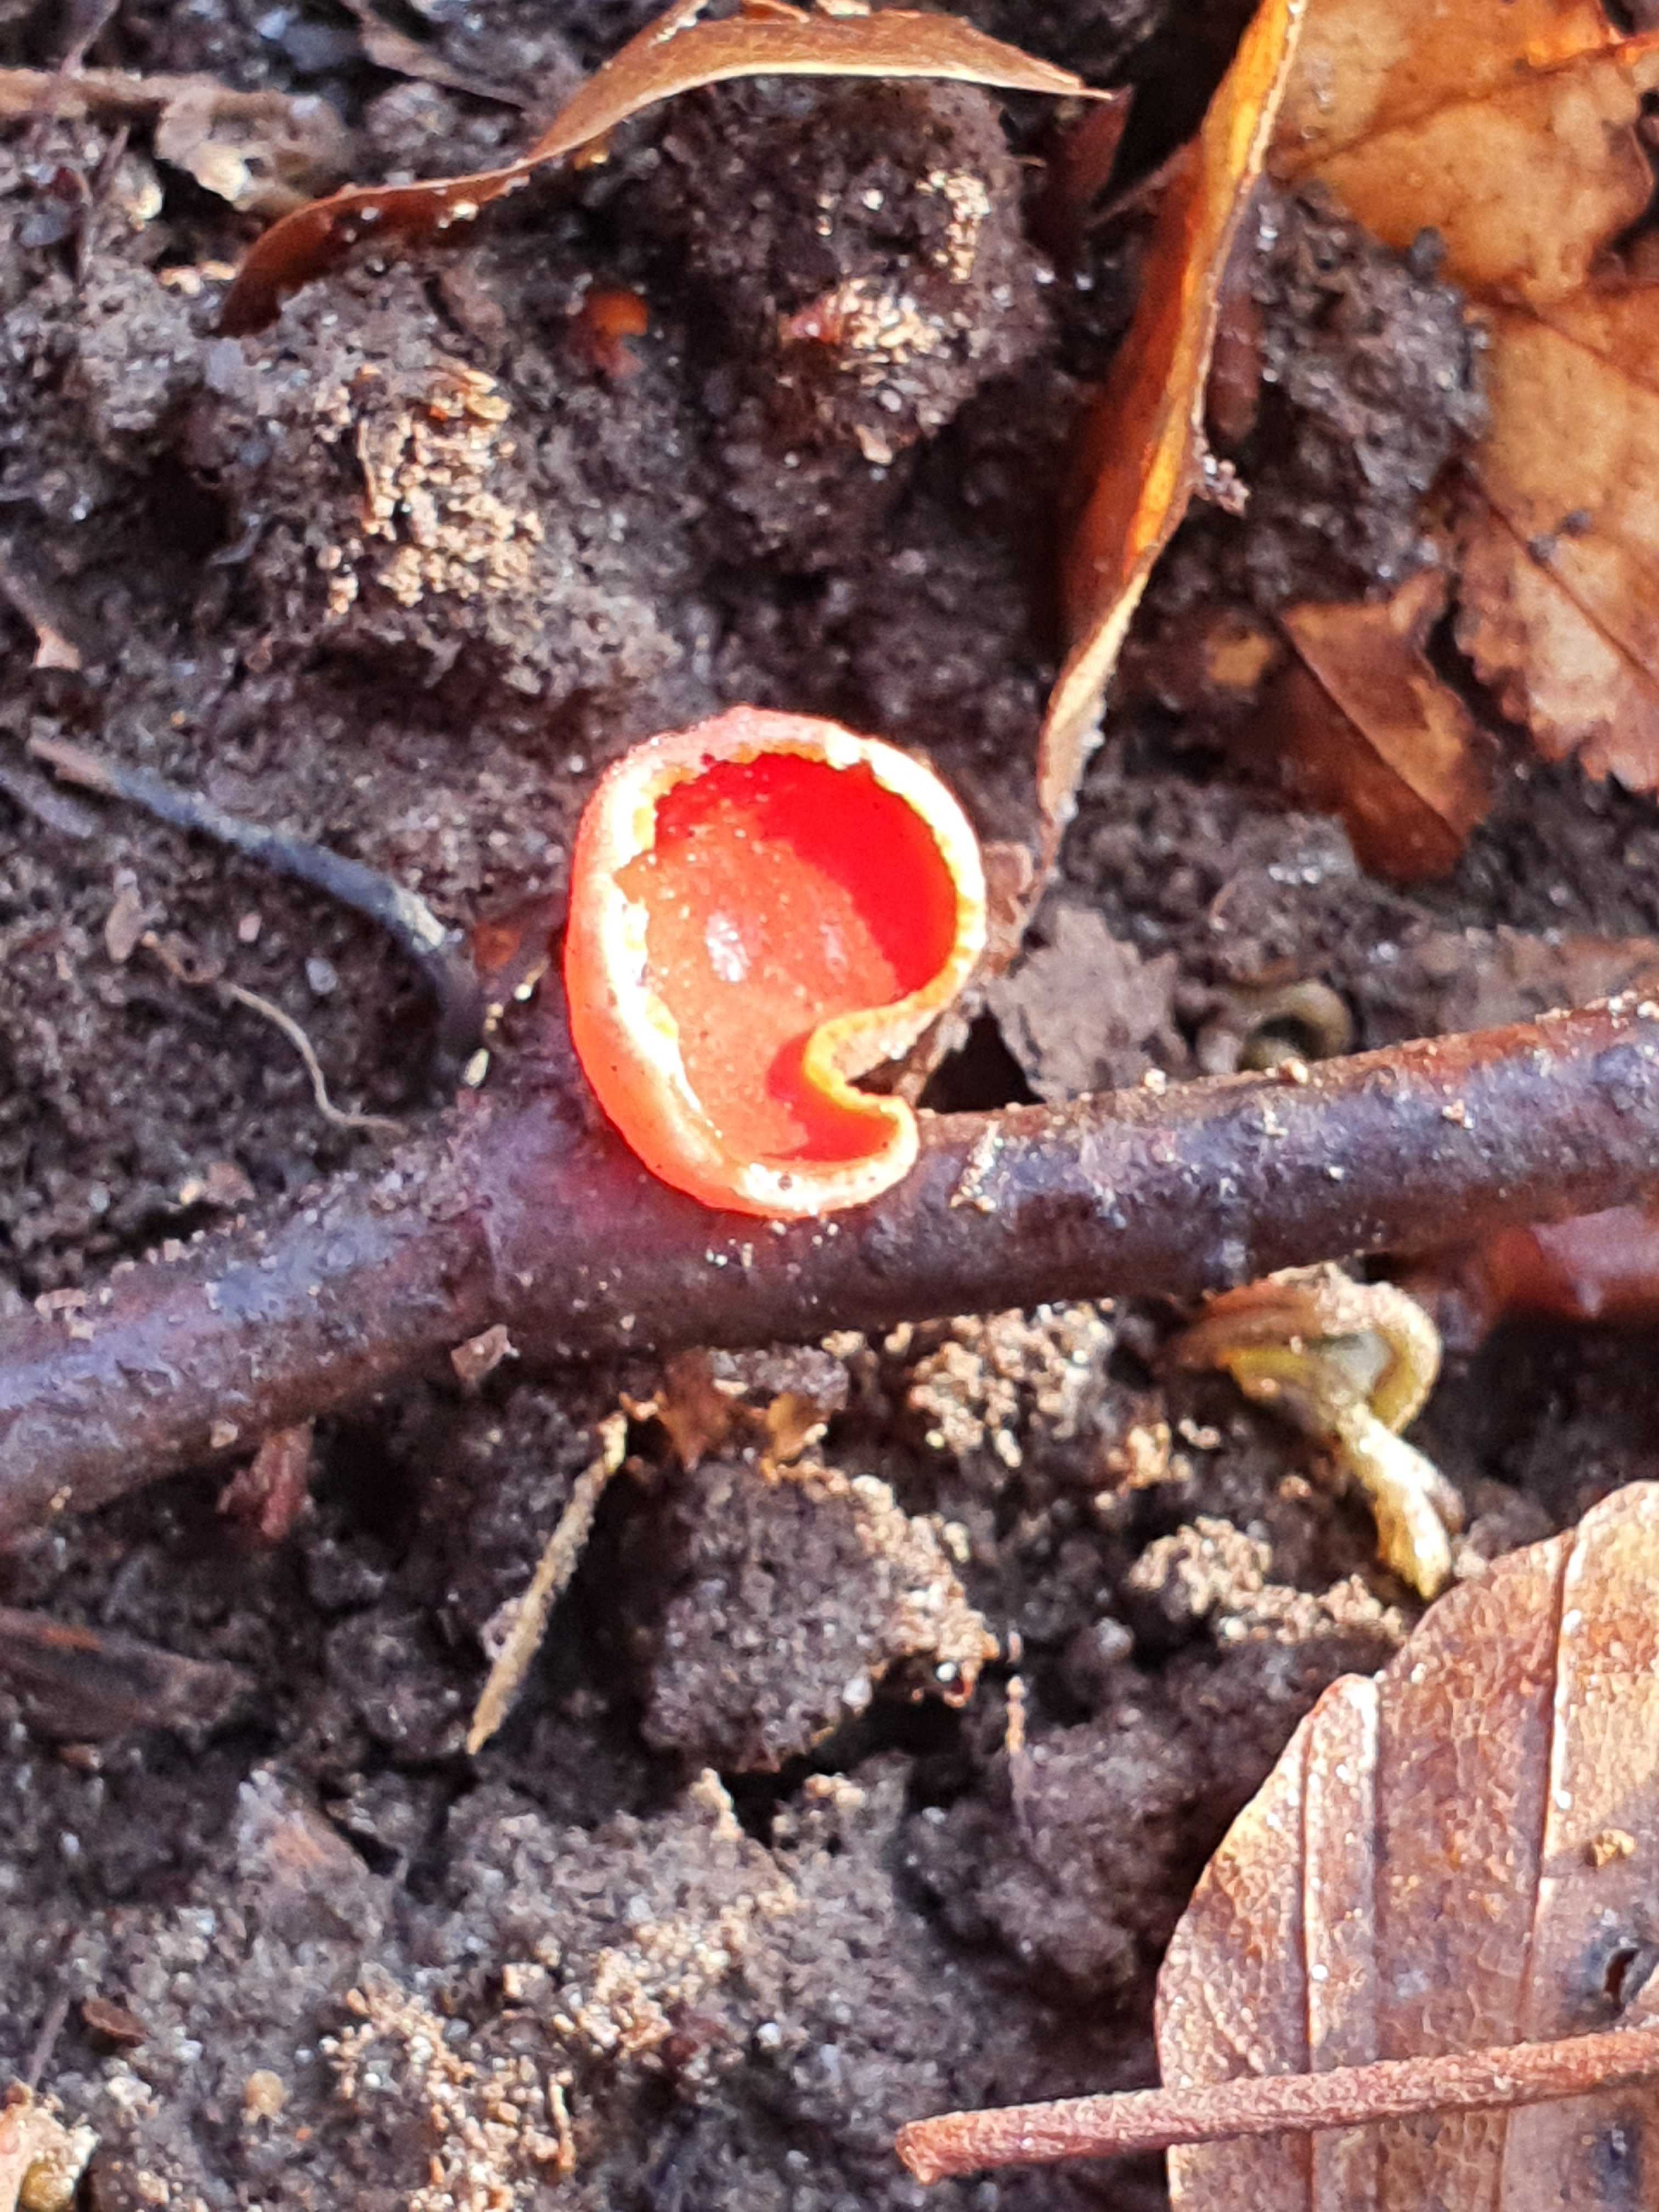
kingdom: Fungi
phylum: Ascomycota
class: Pezizomycetes
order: Pezizales
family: Sarcoscyphaceae
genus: Sarcoscypha
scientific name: Sarcoscypha coccinea
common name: skarlagen-pragtbæger
